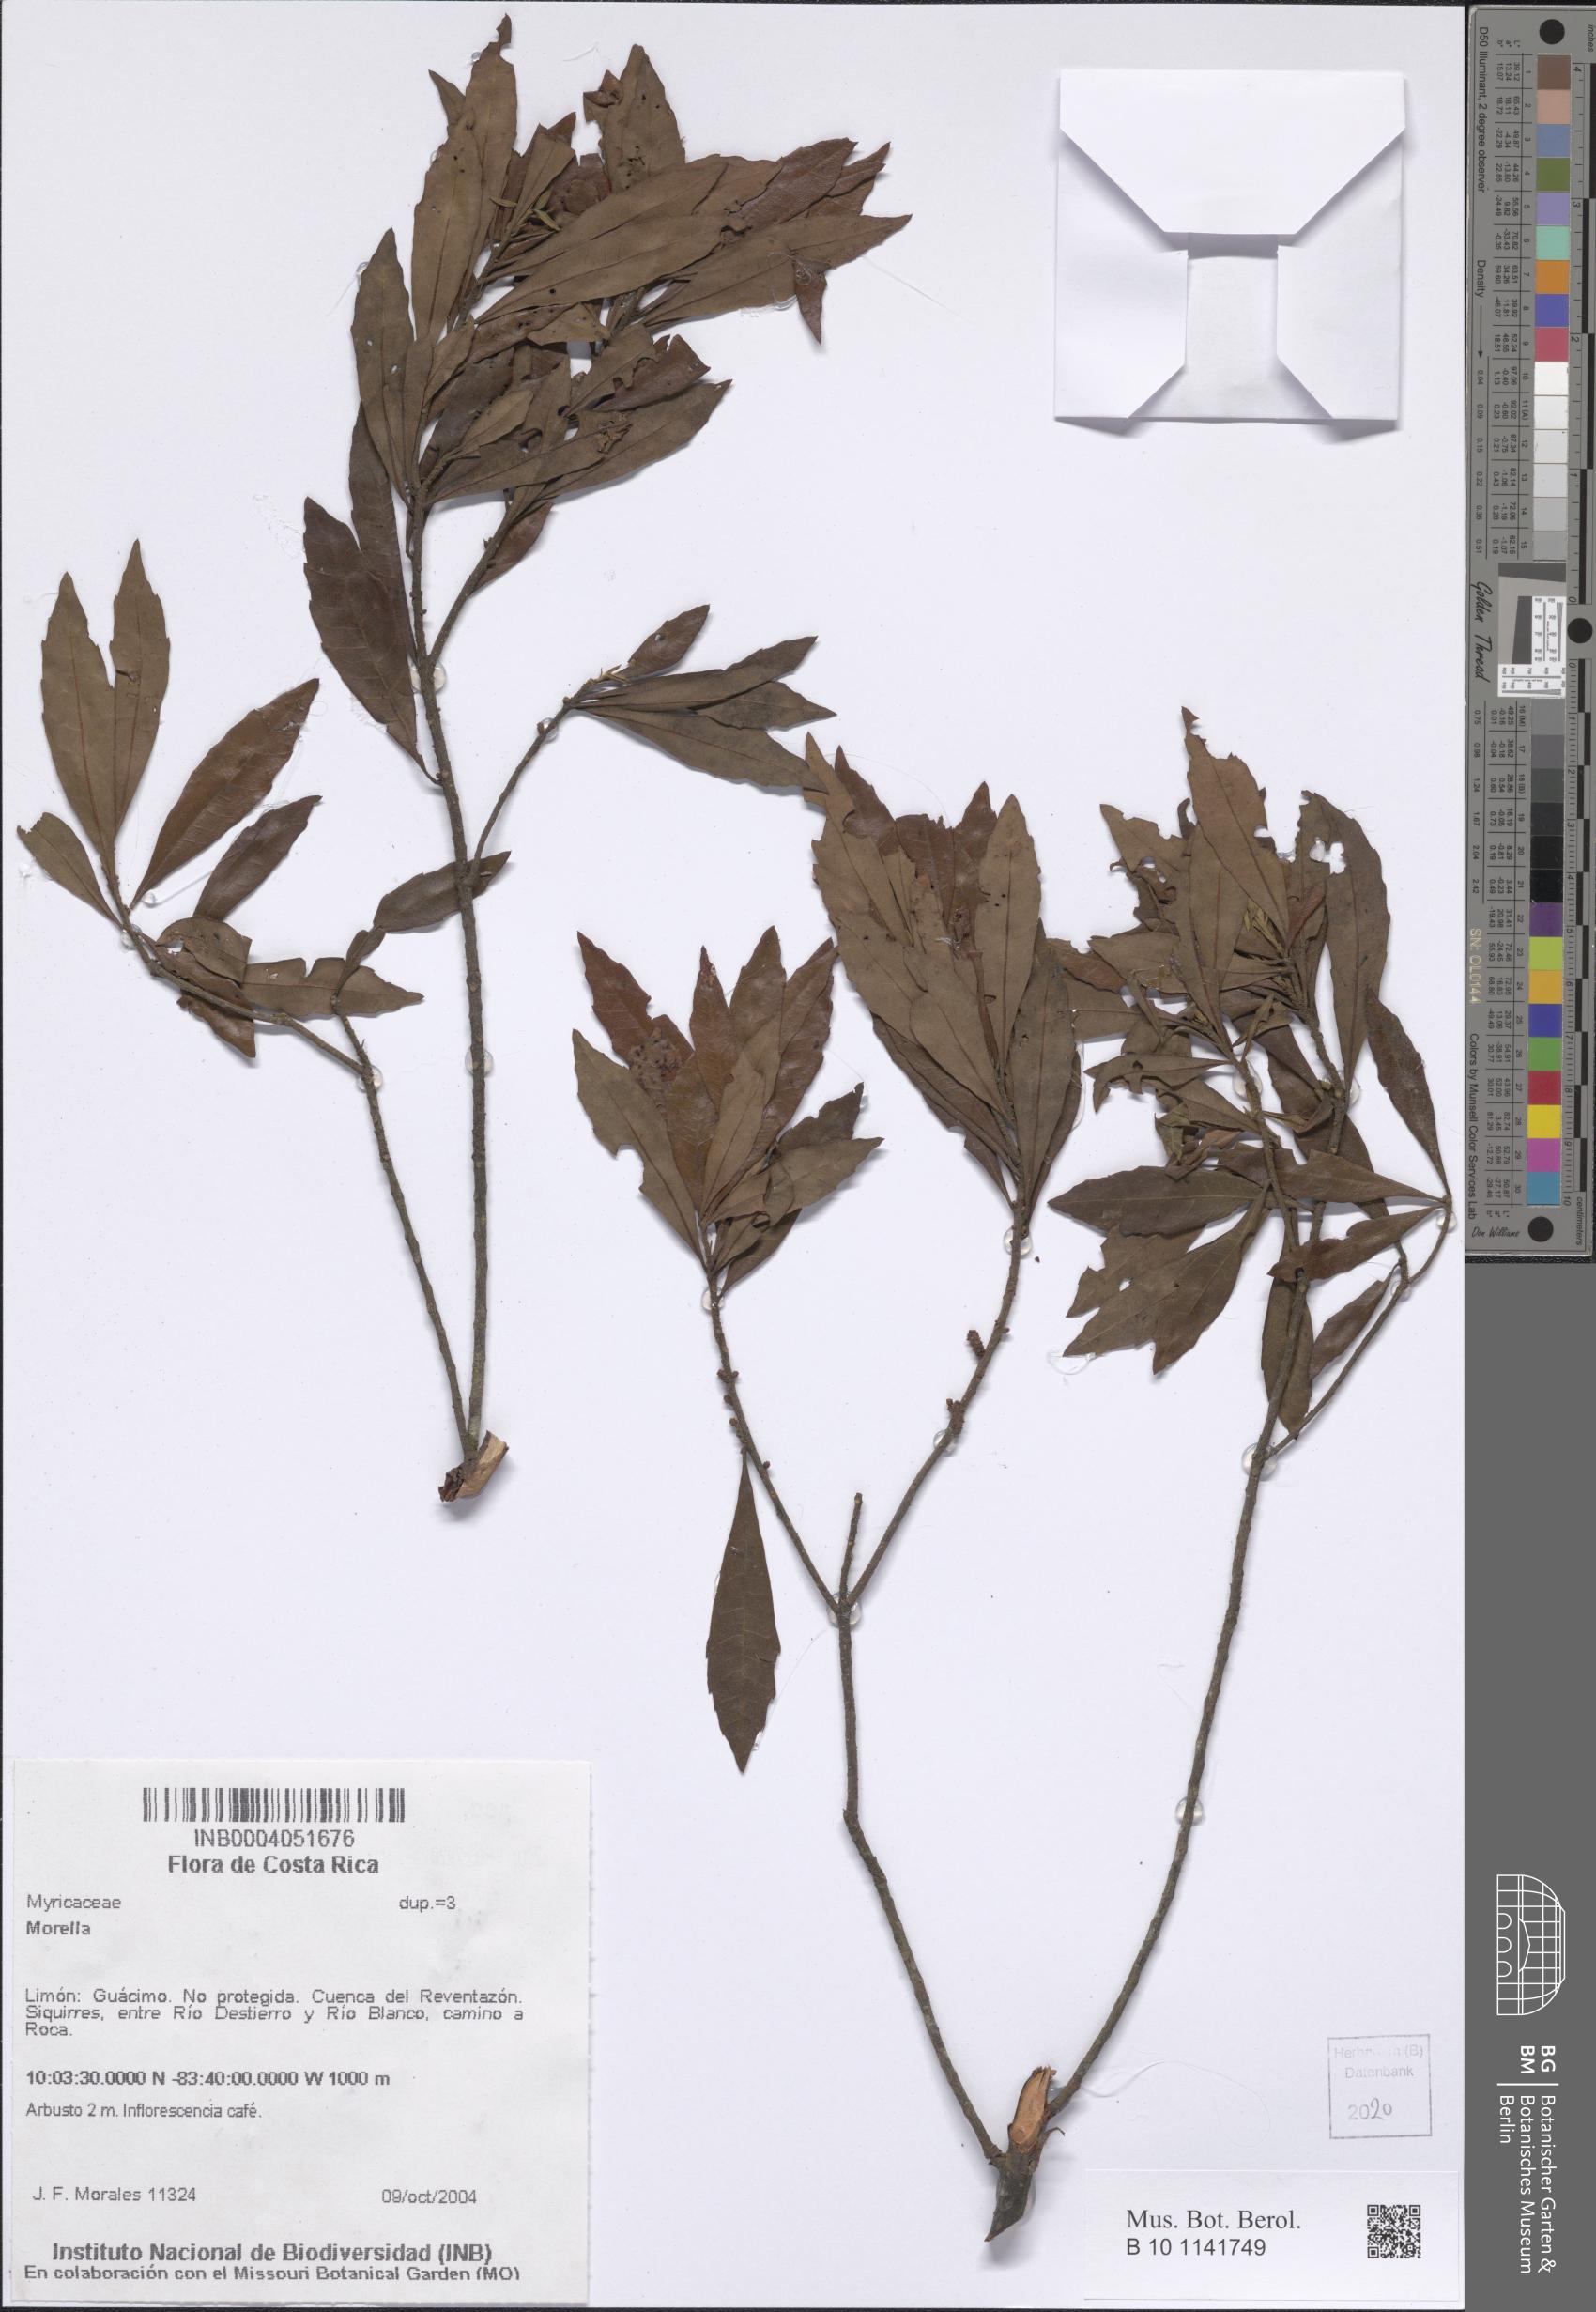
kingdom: Plantae
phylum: Tracheophyta
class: Magnoliopsida
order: Fagales
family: Myricaceae
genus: Morella
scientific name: Morella
